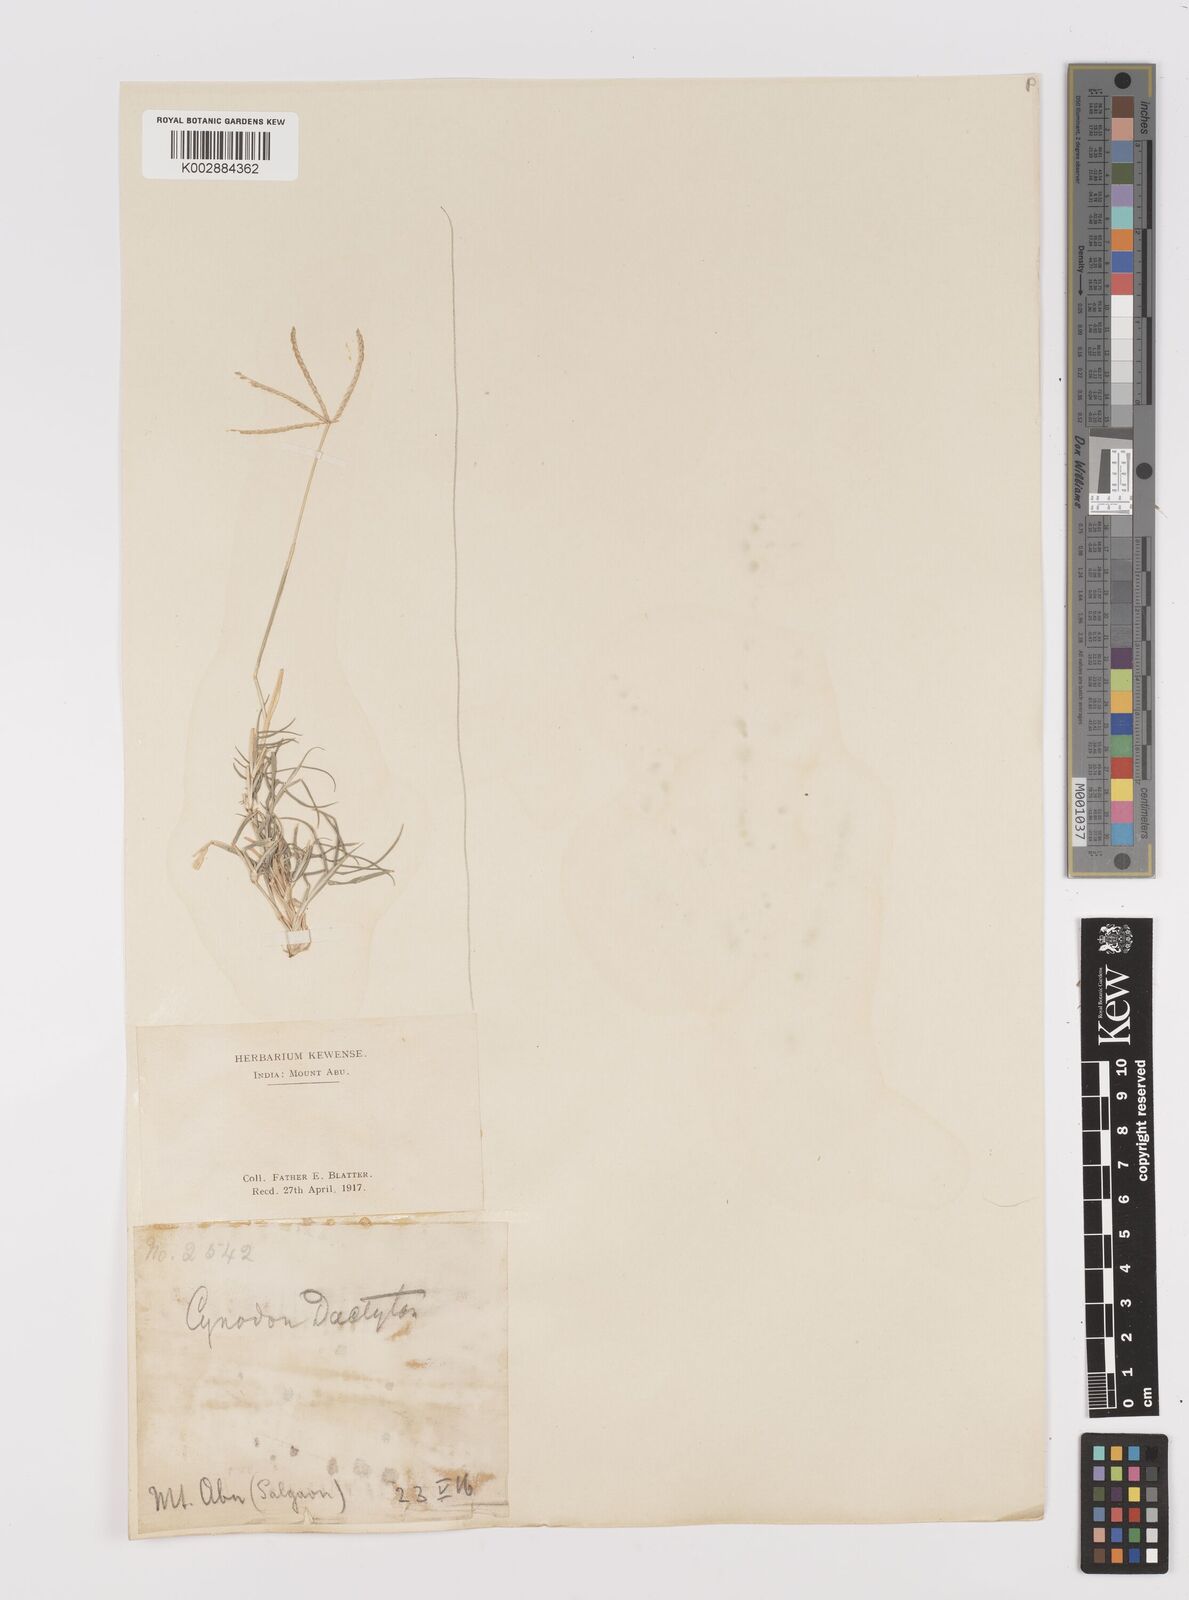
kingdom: Plantae
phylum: Tracheophyta
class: Liliopsida
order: Poales
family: Poaceae
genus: Cynodon
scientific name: Cynodon dactylon
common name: Bermuda grass
